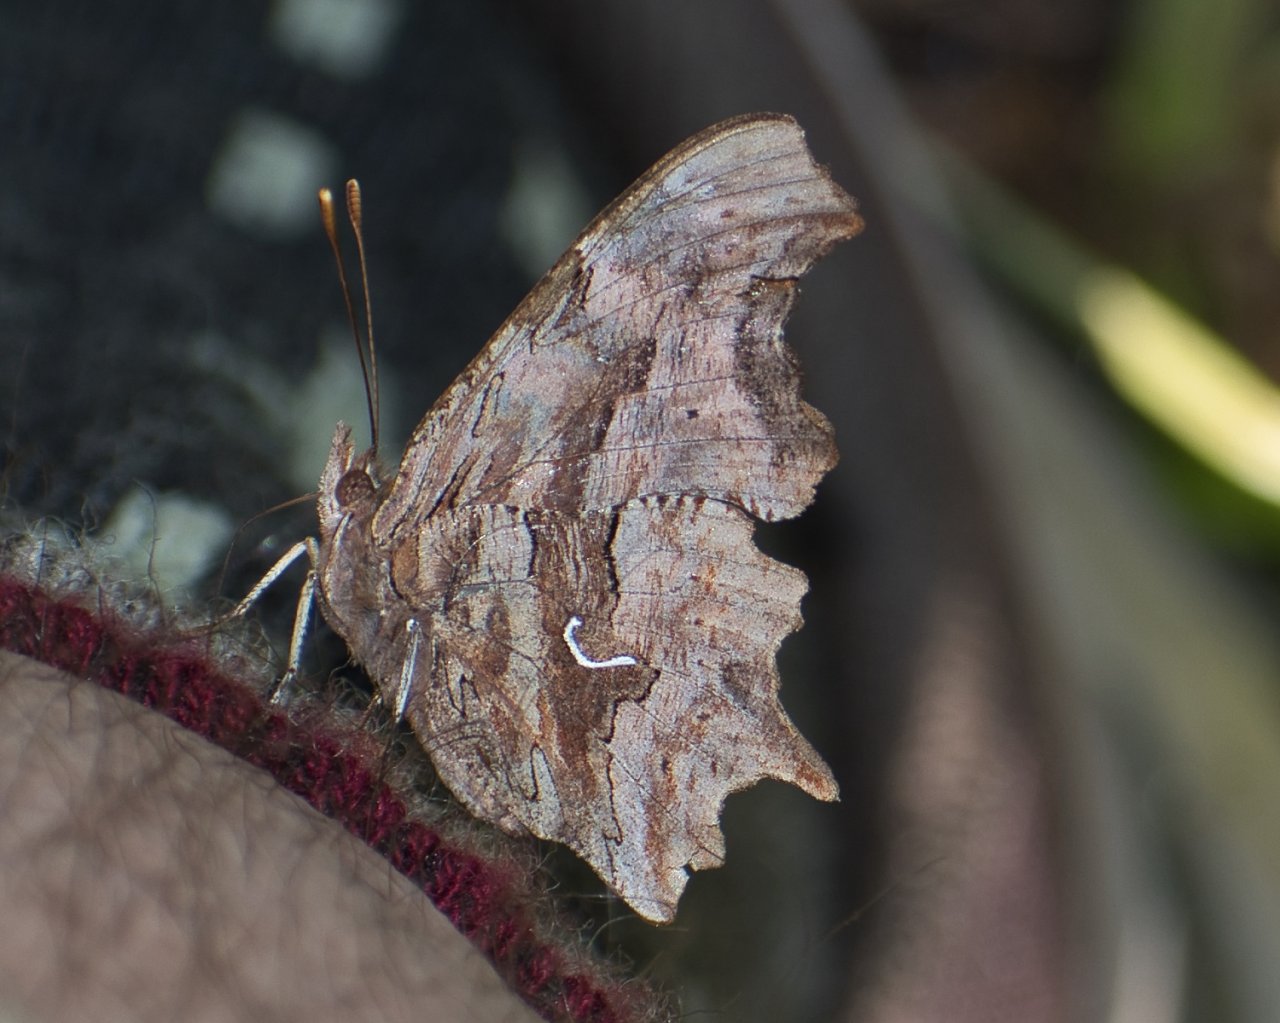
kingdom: Animalia
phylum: Arthropoda
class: Insecta
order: Lepidoptera
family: Nymphalidae
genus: Polygonia
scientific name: Polygonia satyrus
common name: Satyr Comma
